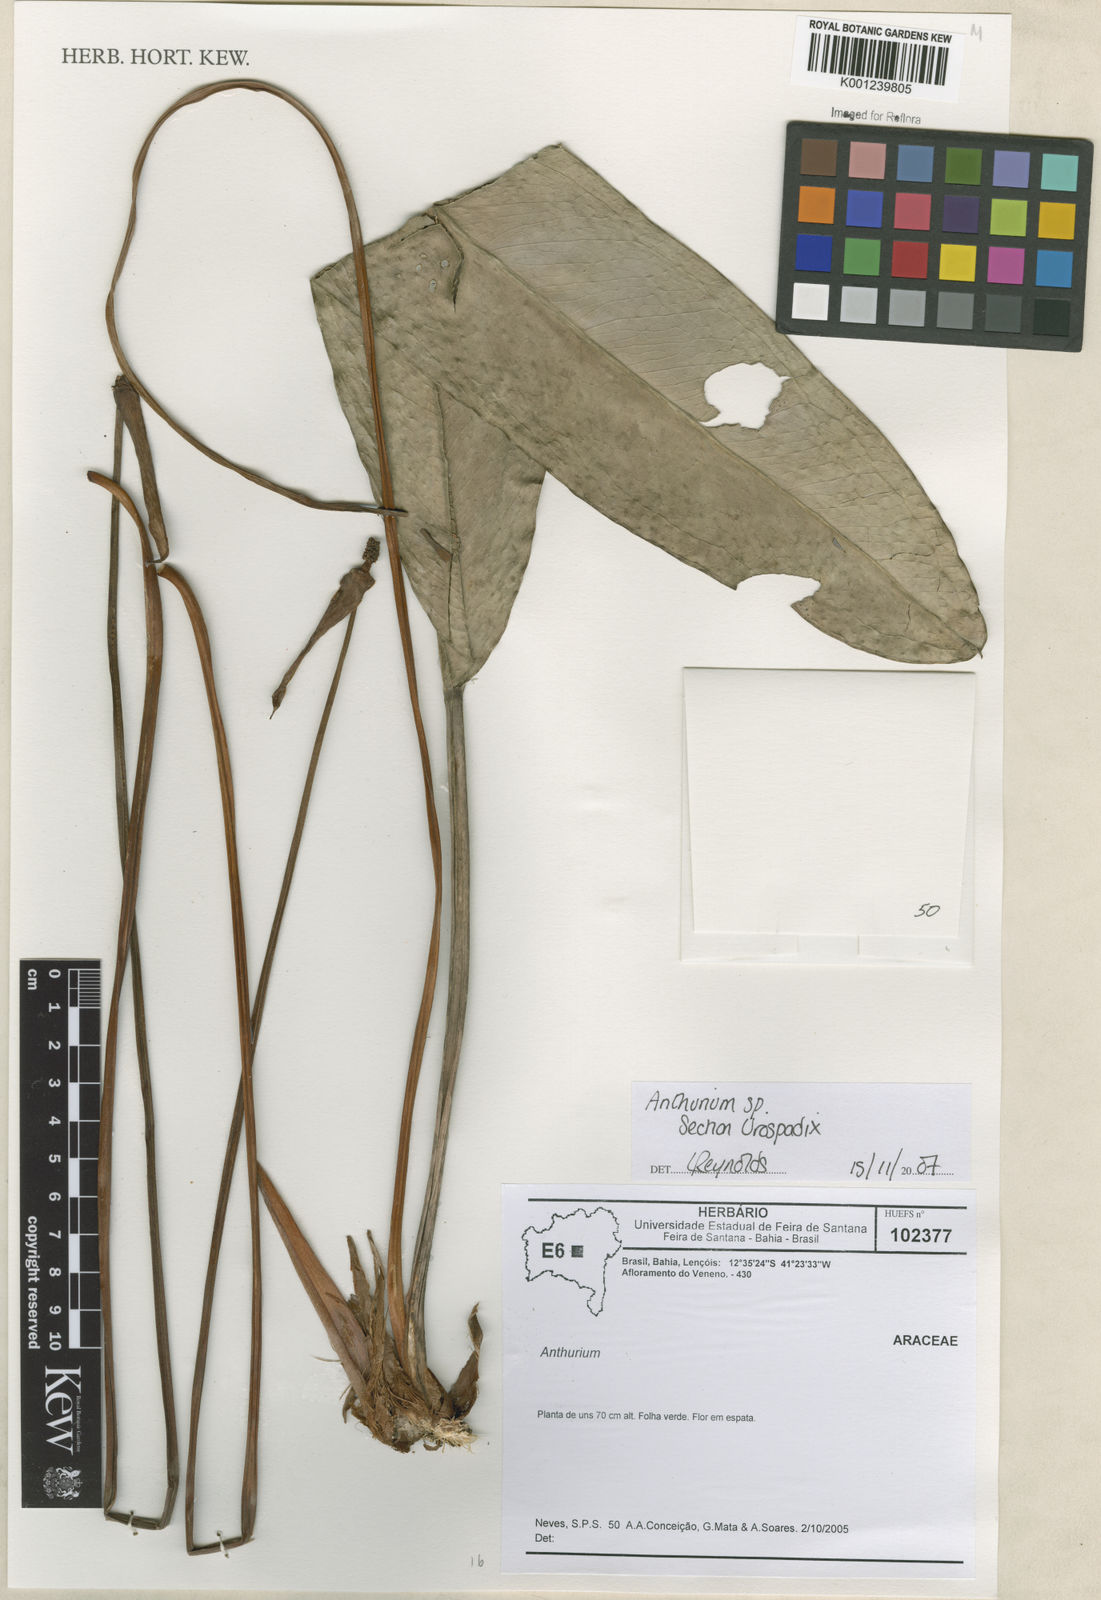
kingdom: Plantae
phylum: Tracheophyta
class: Liliopsida
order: Alismatales
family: Araceae
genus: Anthurium
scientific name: Anthurium
